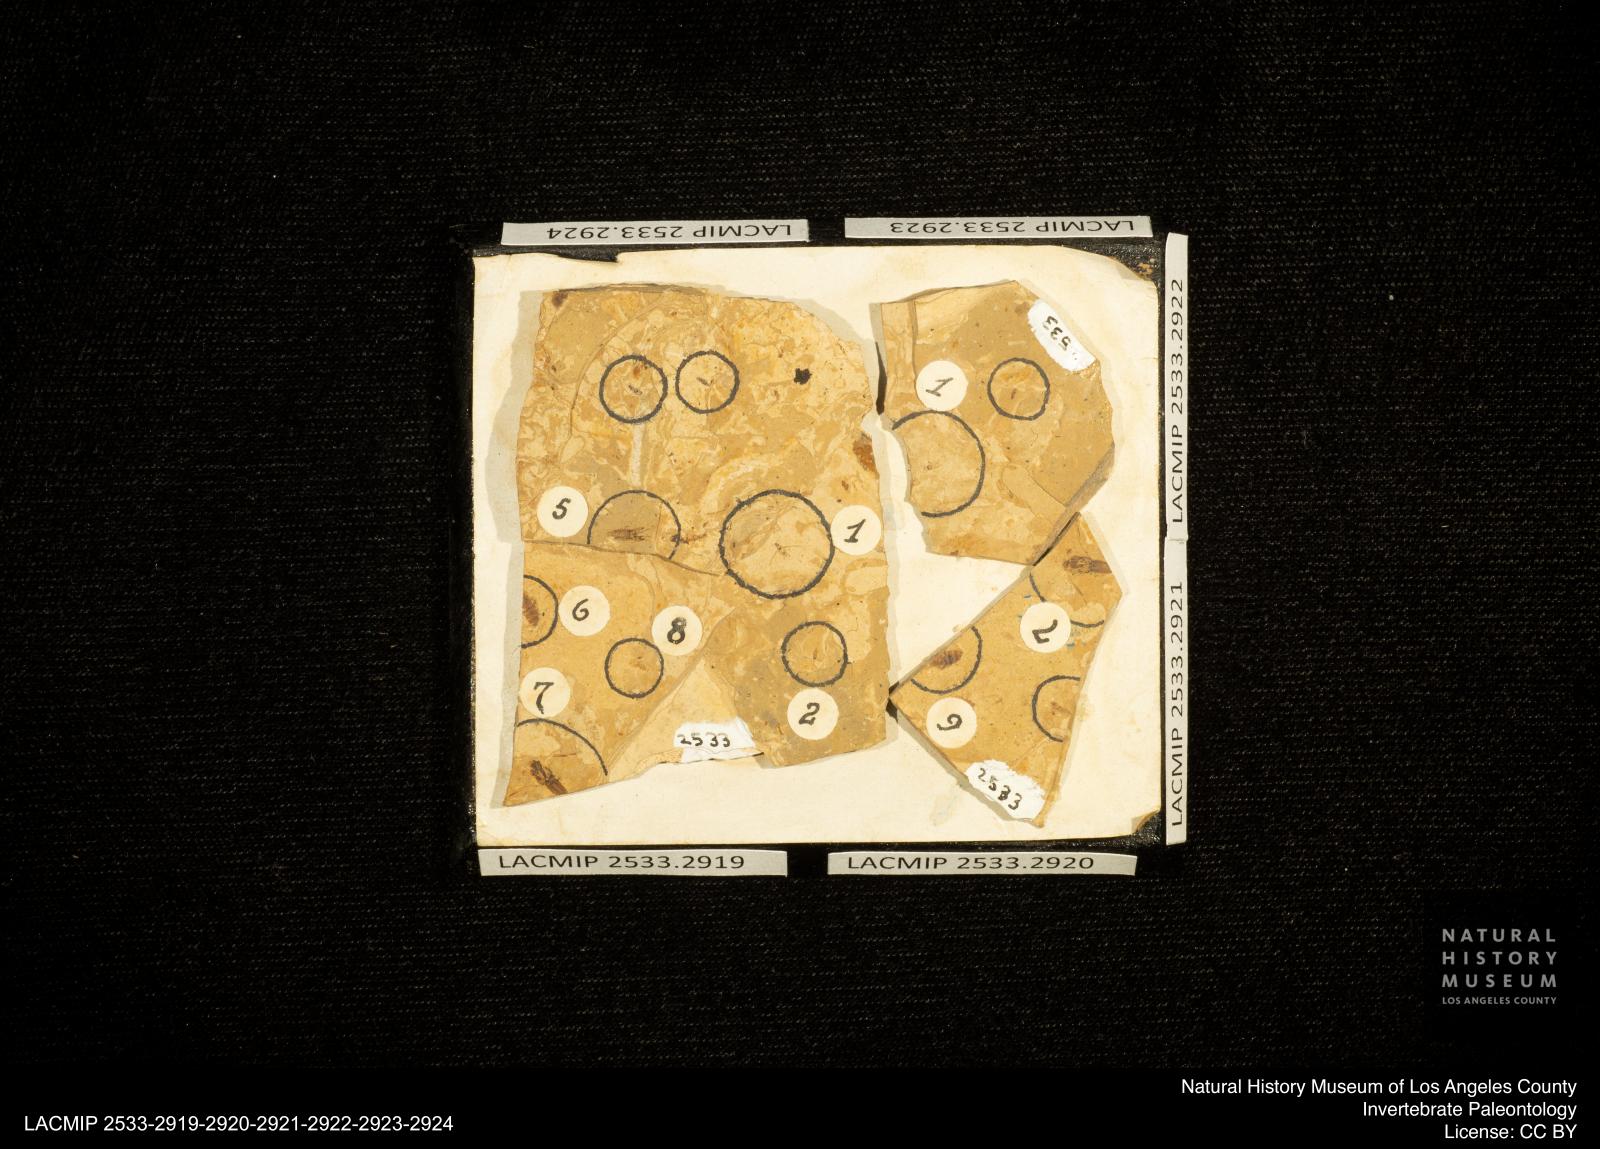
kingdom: Animalia
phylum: Arthropoda
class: Insecta
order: Hemiptera
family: Notonectidae
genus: Notonecta
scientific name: Notonecta
